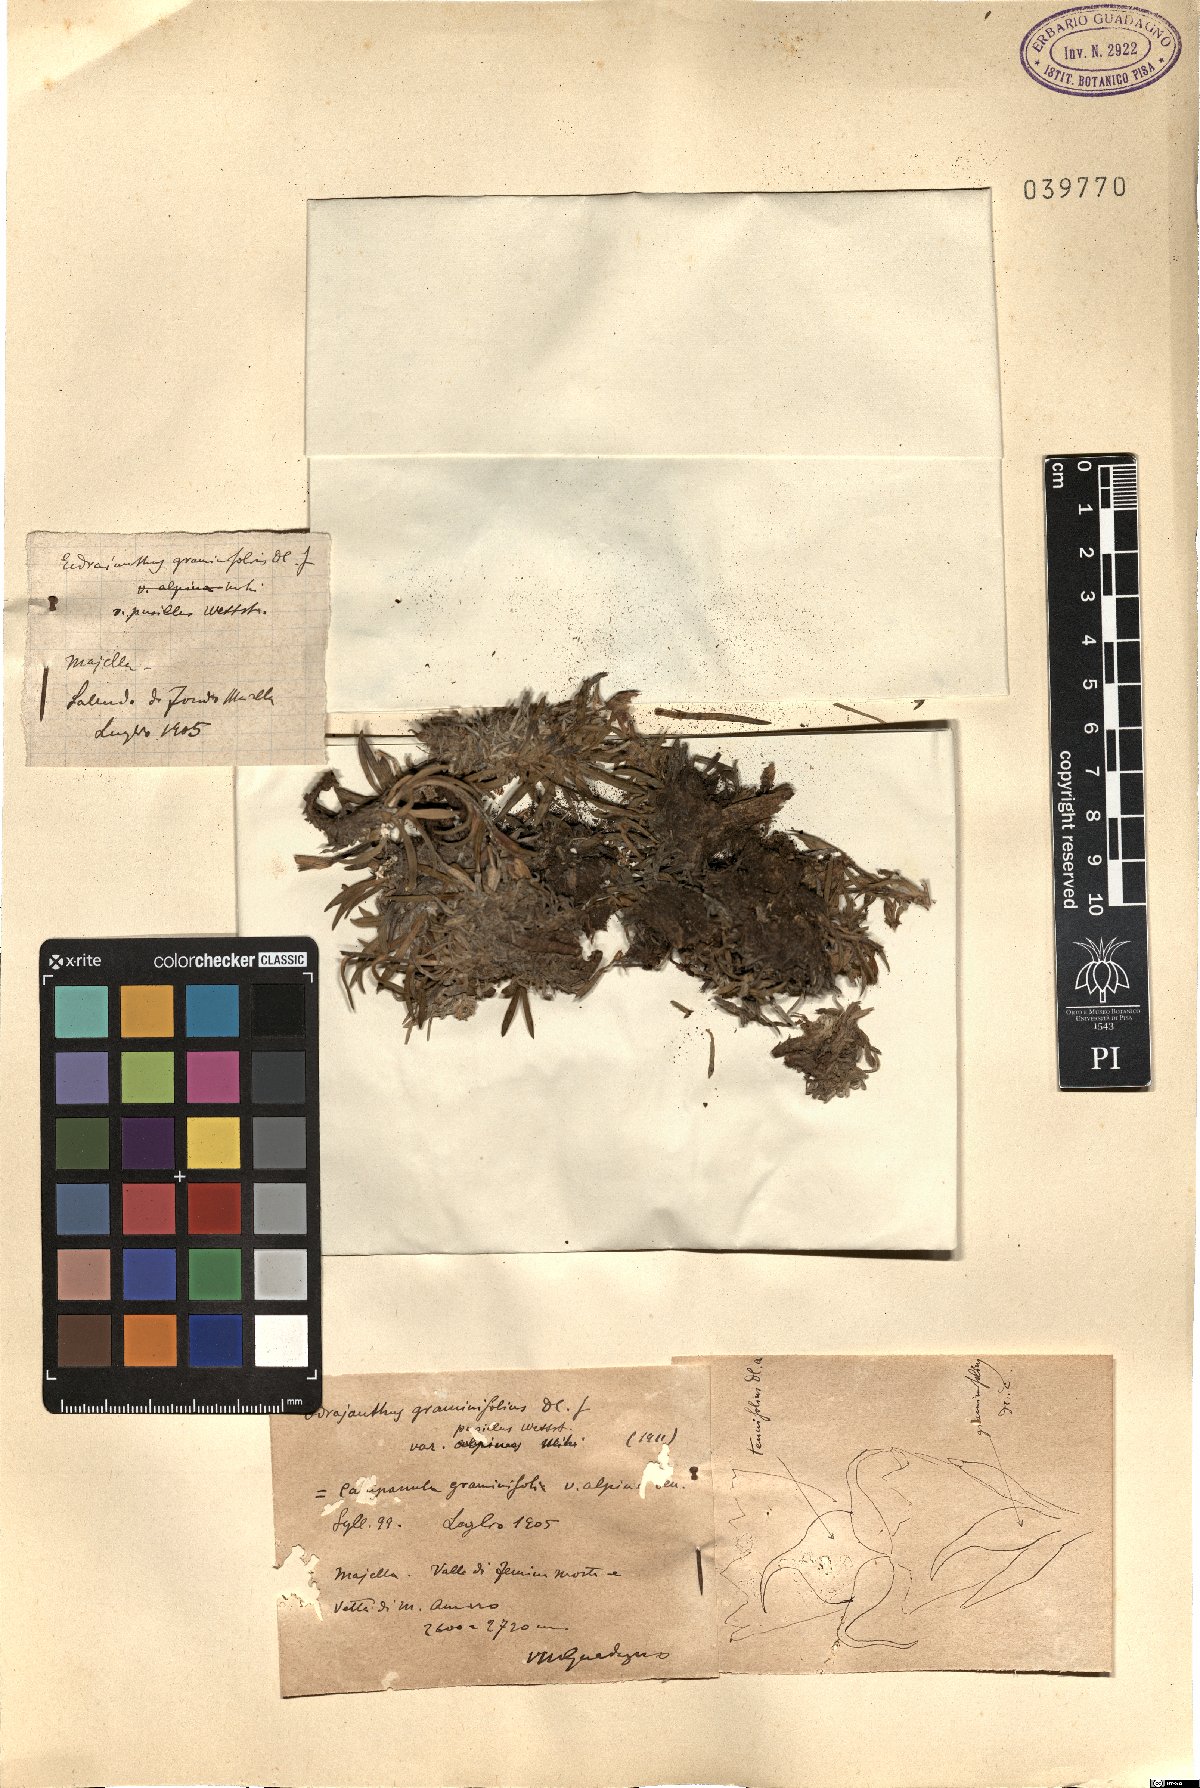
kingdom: Plantae
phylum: Tracheophyta
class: Magnoliopsida
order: Asterales
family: Campanulaceae
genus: Edraianthus
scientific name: Edraianthus graminifolius
